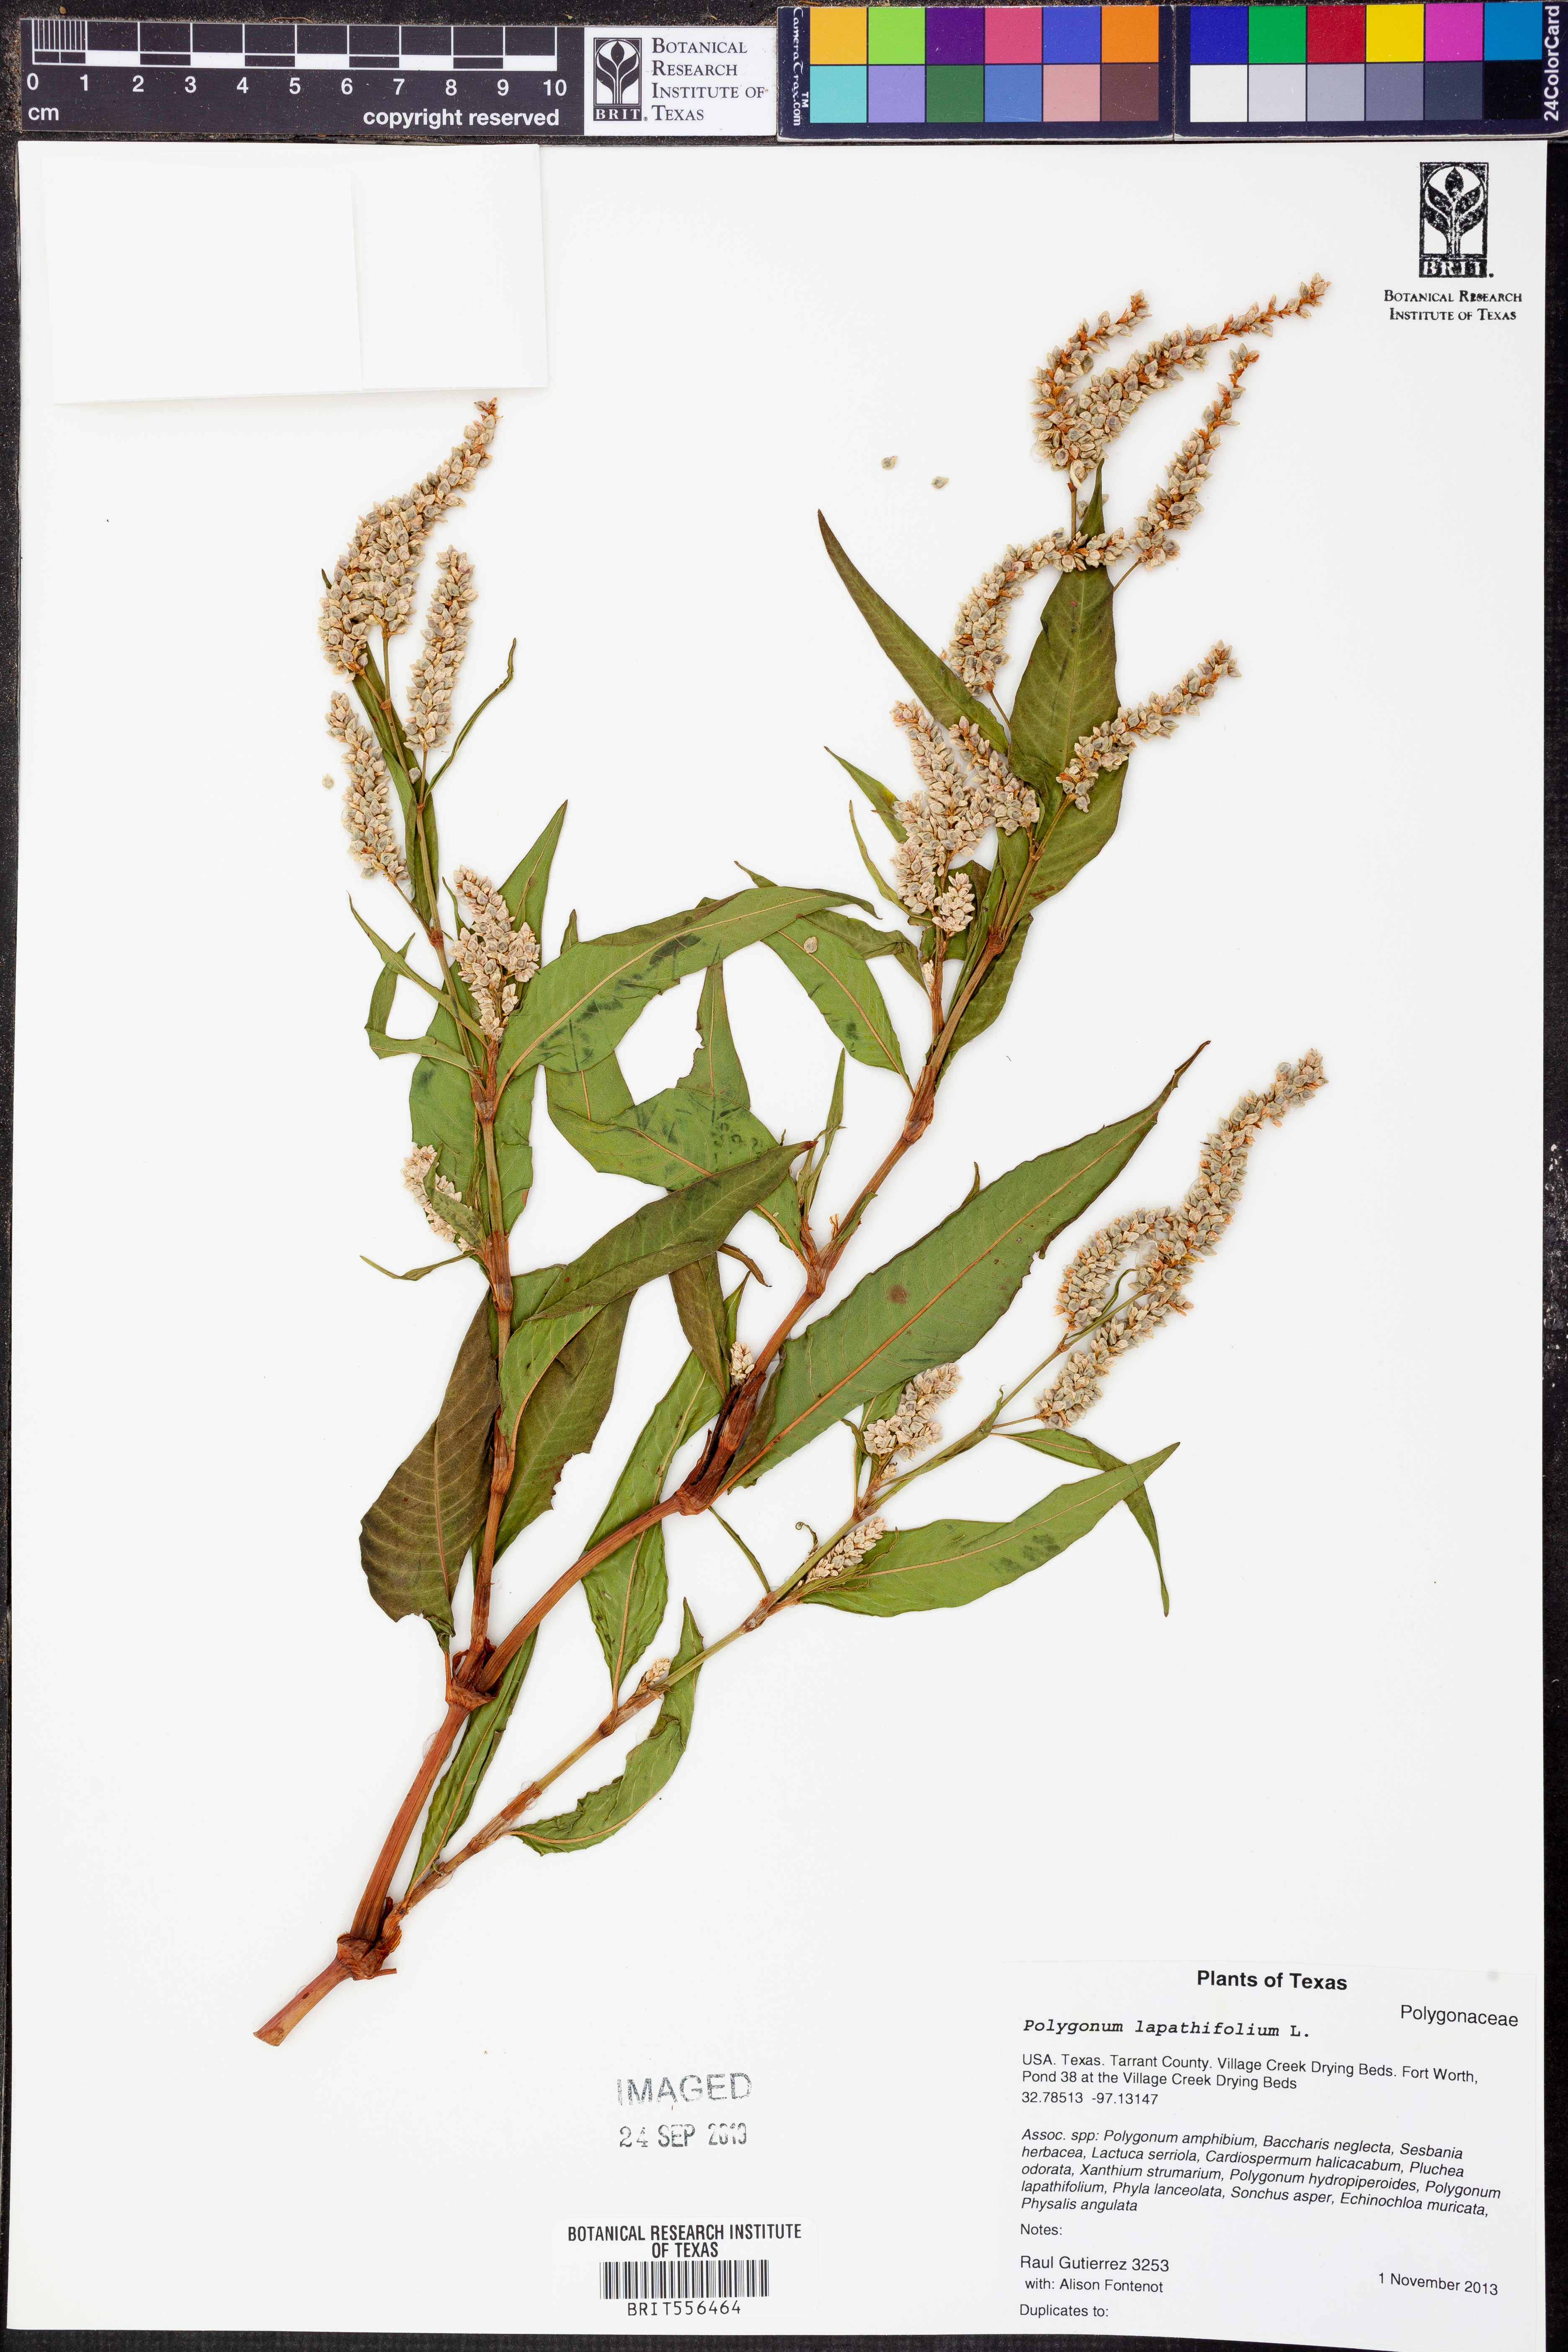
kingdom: Plantae
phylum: Tracheophyta
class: Magnoliopsida
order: Caryophyllales
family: Polygonaceae
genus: Persicaria
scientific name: Persicaria lapathifolia
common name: Curlytop knotweed
